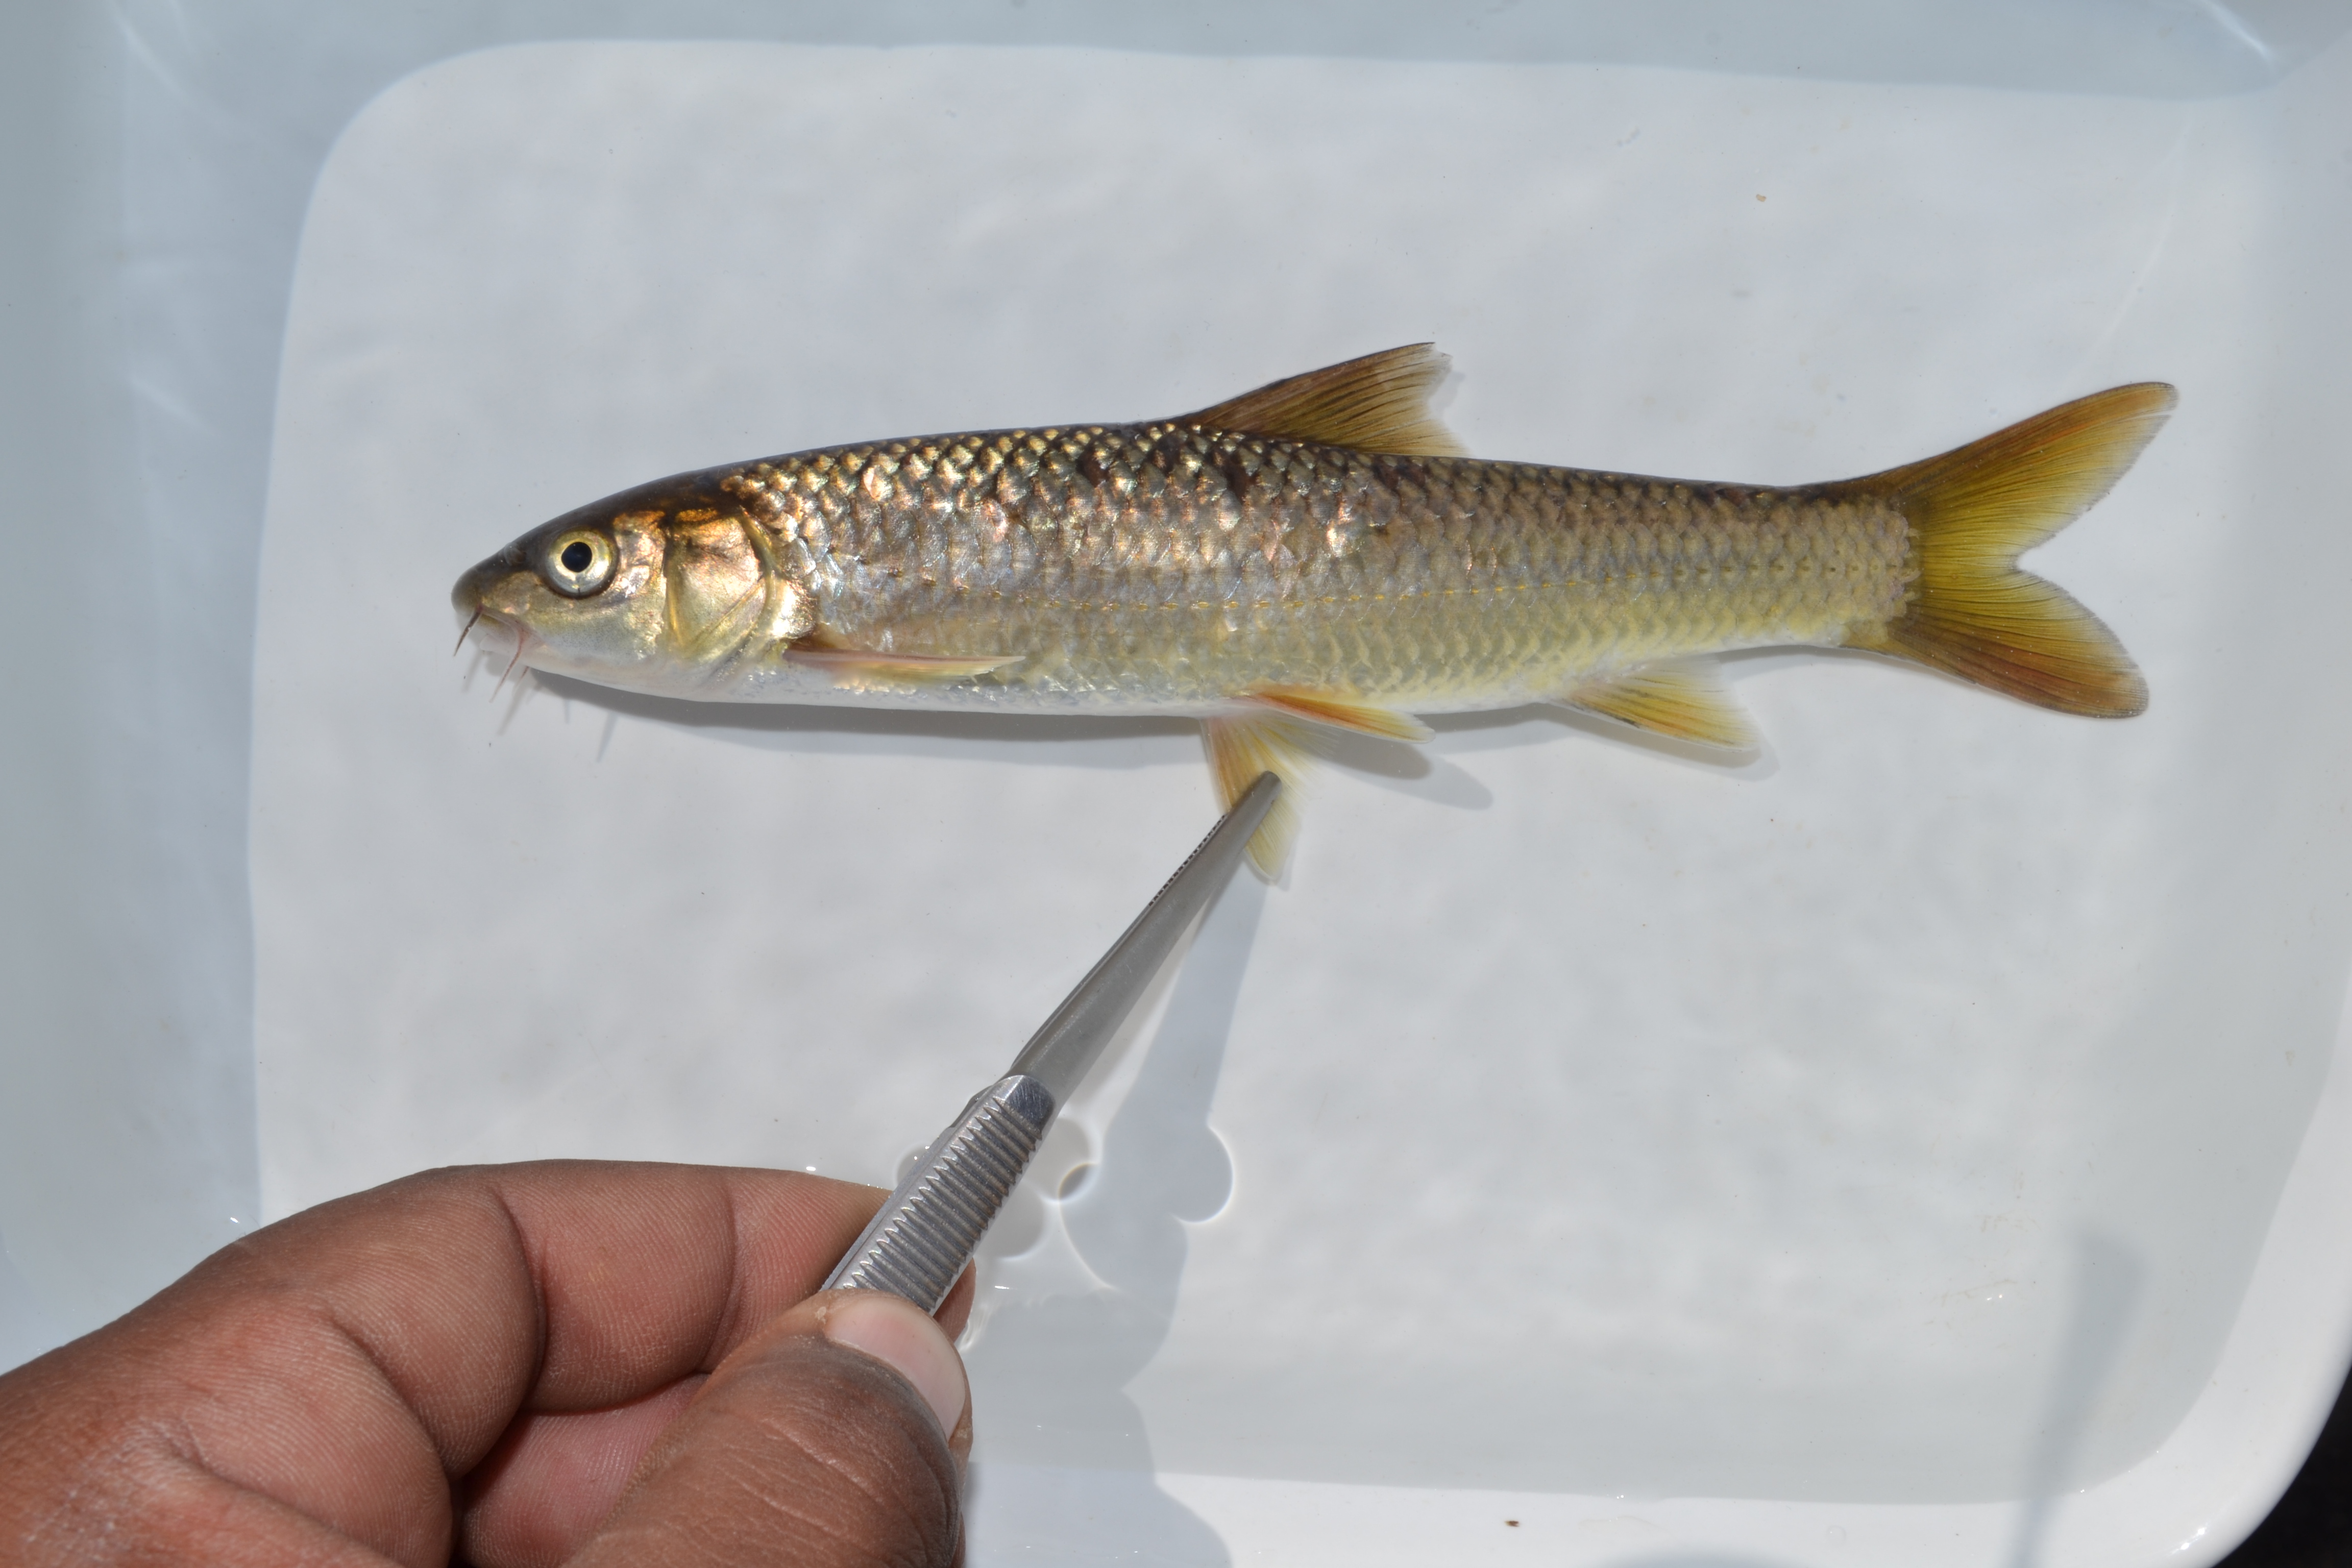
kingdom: Animalia
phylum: Chordata
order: Cypriniformes
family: Cyprinidae
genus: Labeobarbus
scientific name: Labeobarbus natalensis
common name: Scaly
